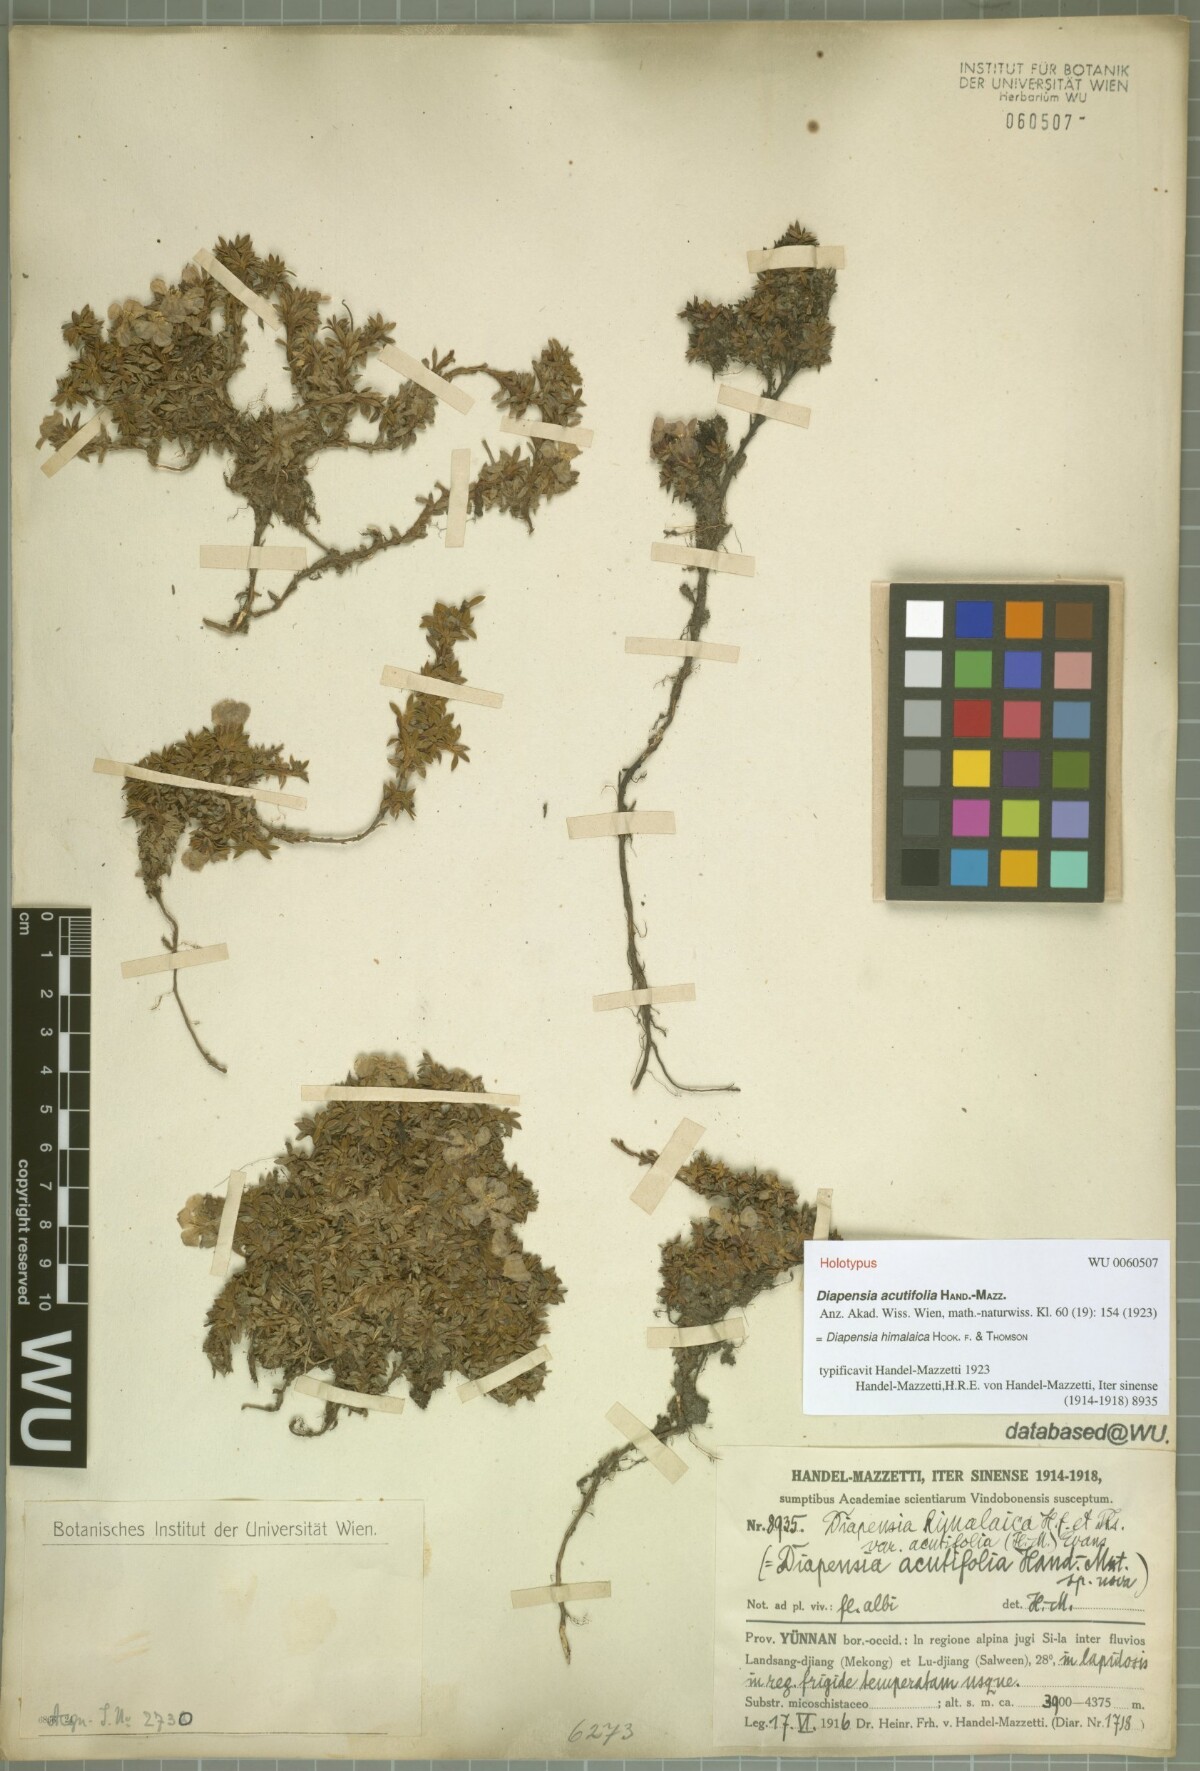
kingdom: Plantae
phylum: Tracheophyta
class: Magnoliopsida
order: Ericales
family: Diapensiaceae
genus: Diapensia
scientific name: Diapensia himalaica
